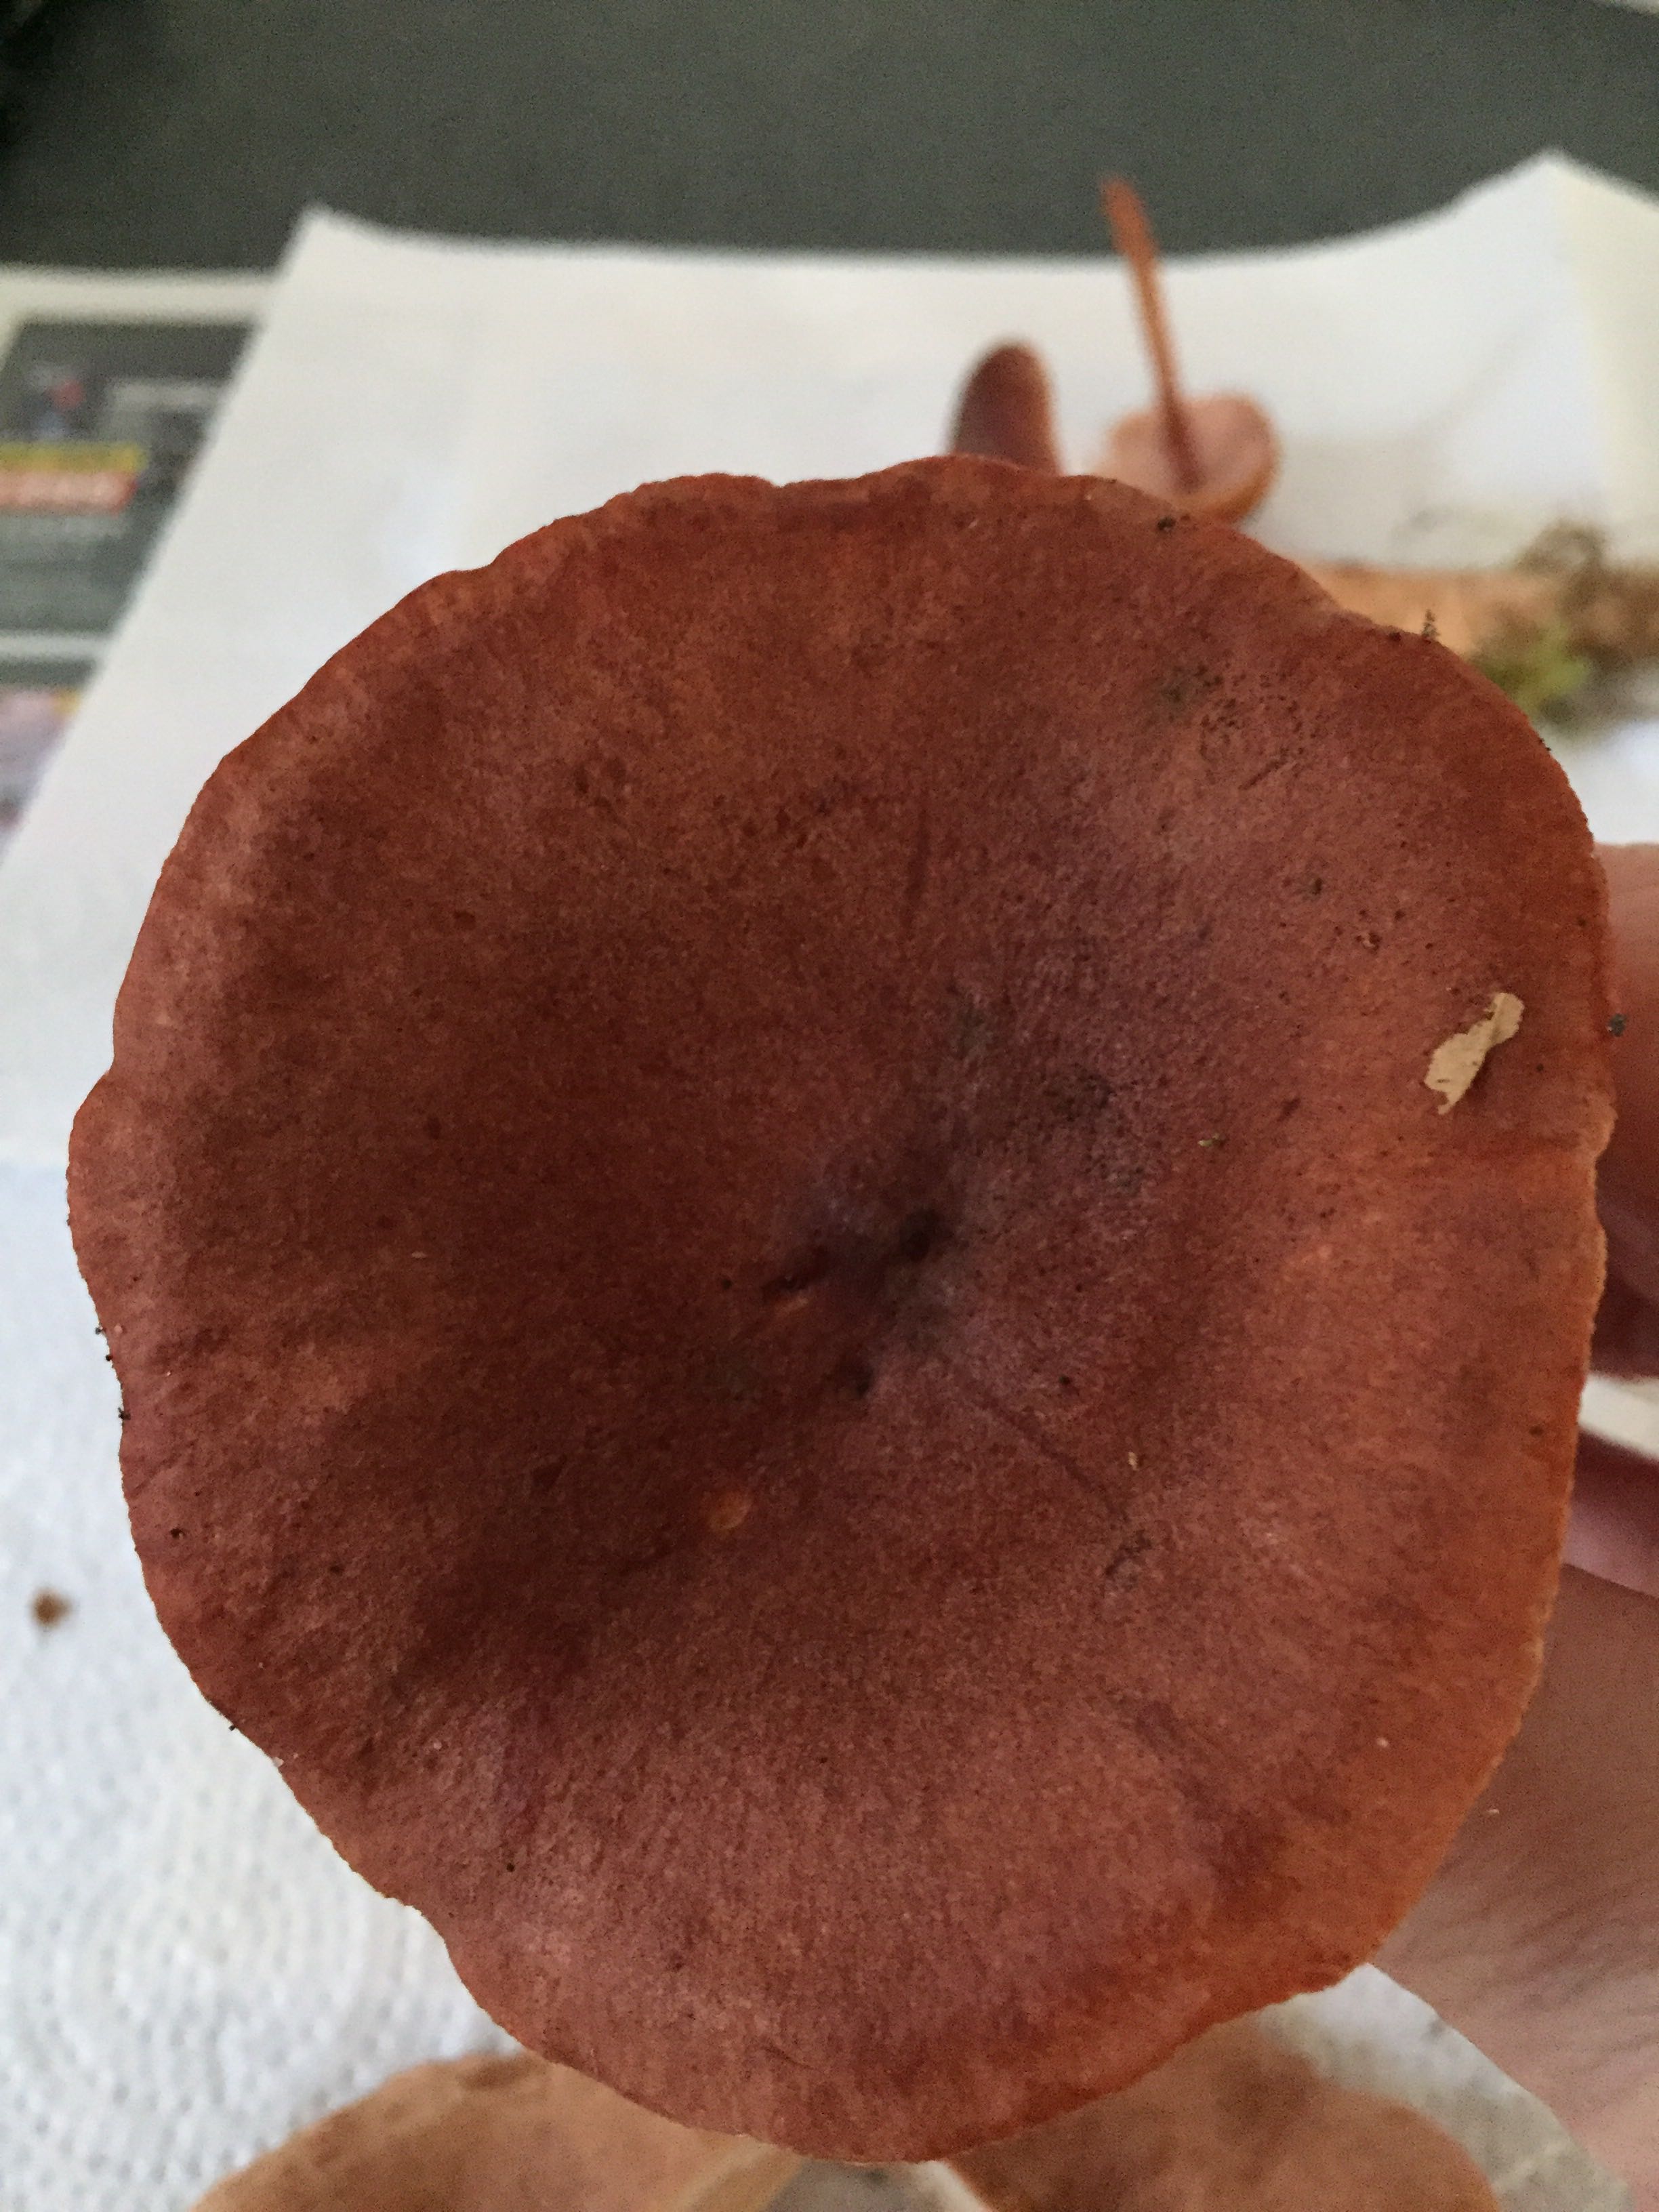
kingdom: Fungi
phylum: Basidiomycota
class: Agaricomycetes
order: Russulales
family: Russulaceae
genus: Lactarius
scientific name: Lactarius rufus
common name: rødbrun mælkehat
